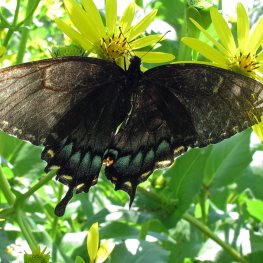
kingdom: Animalia
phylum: Arthropoda
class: Insecta
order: Lepidoptera
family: Papilionidae
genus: Pterourus
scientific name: Pterourus glaucus
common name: Eastern Tiger Swallowtail
